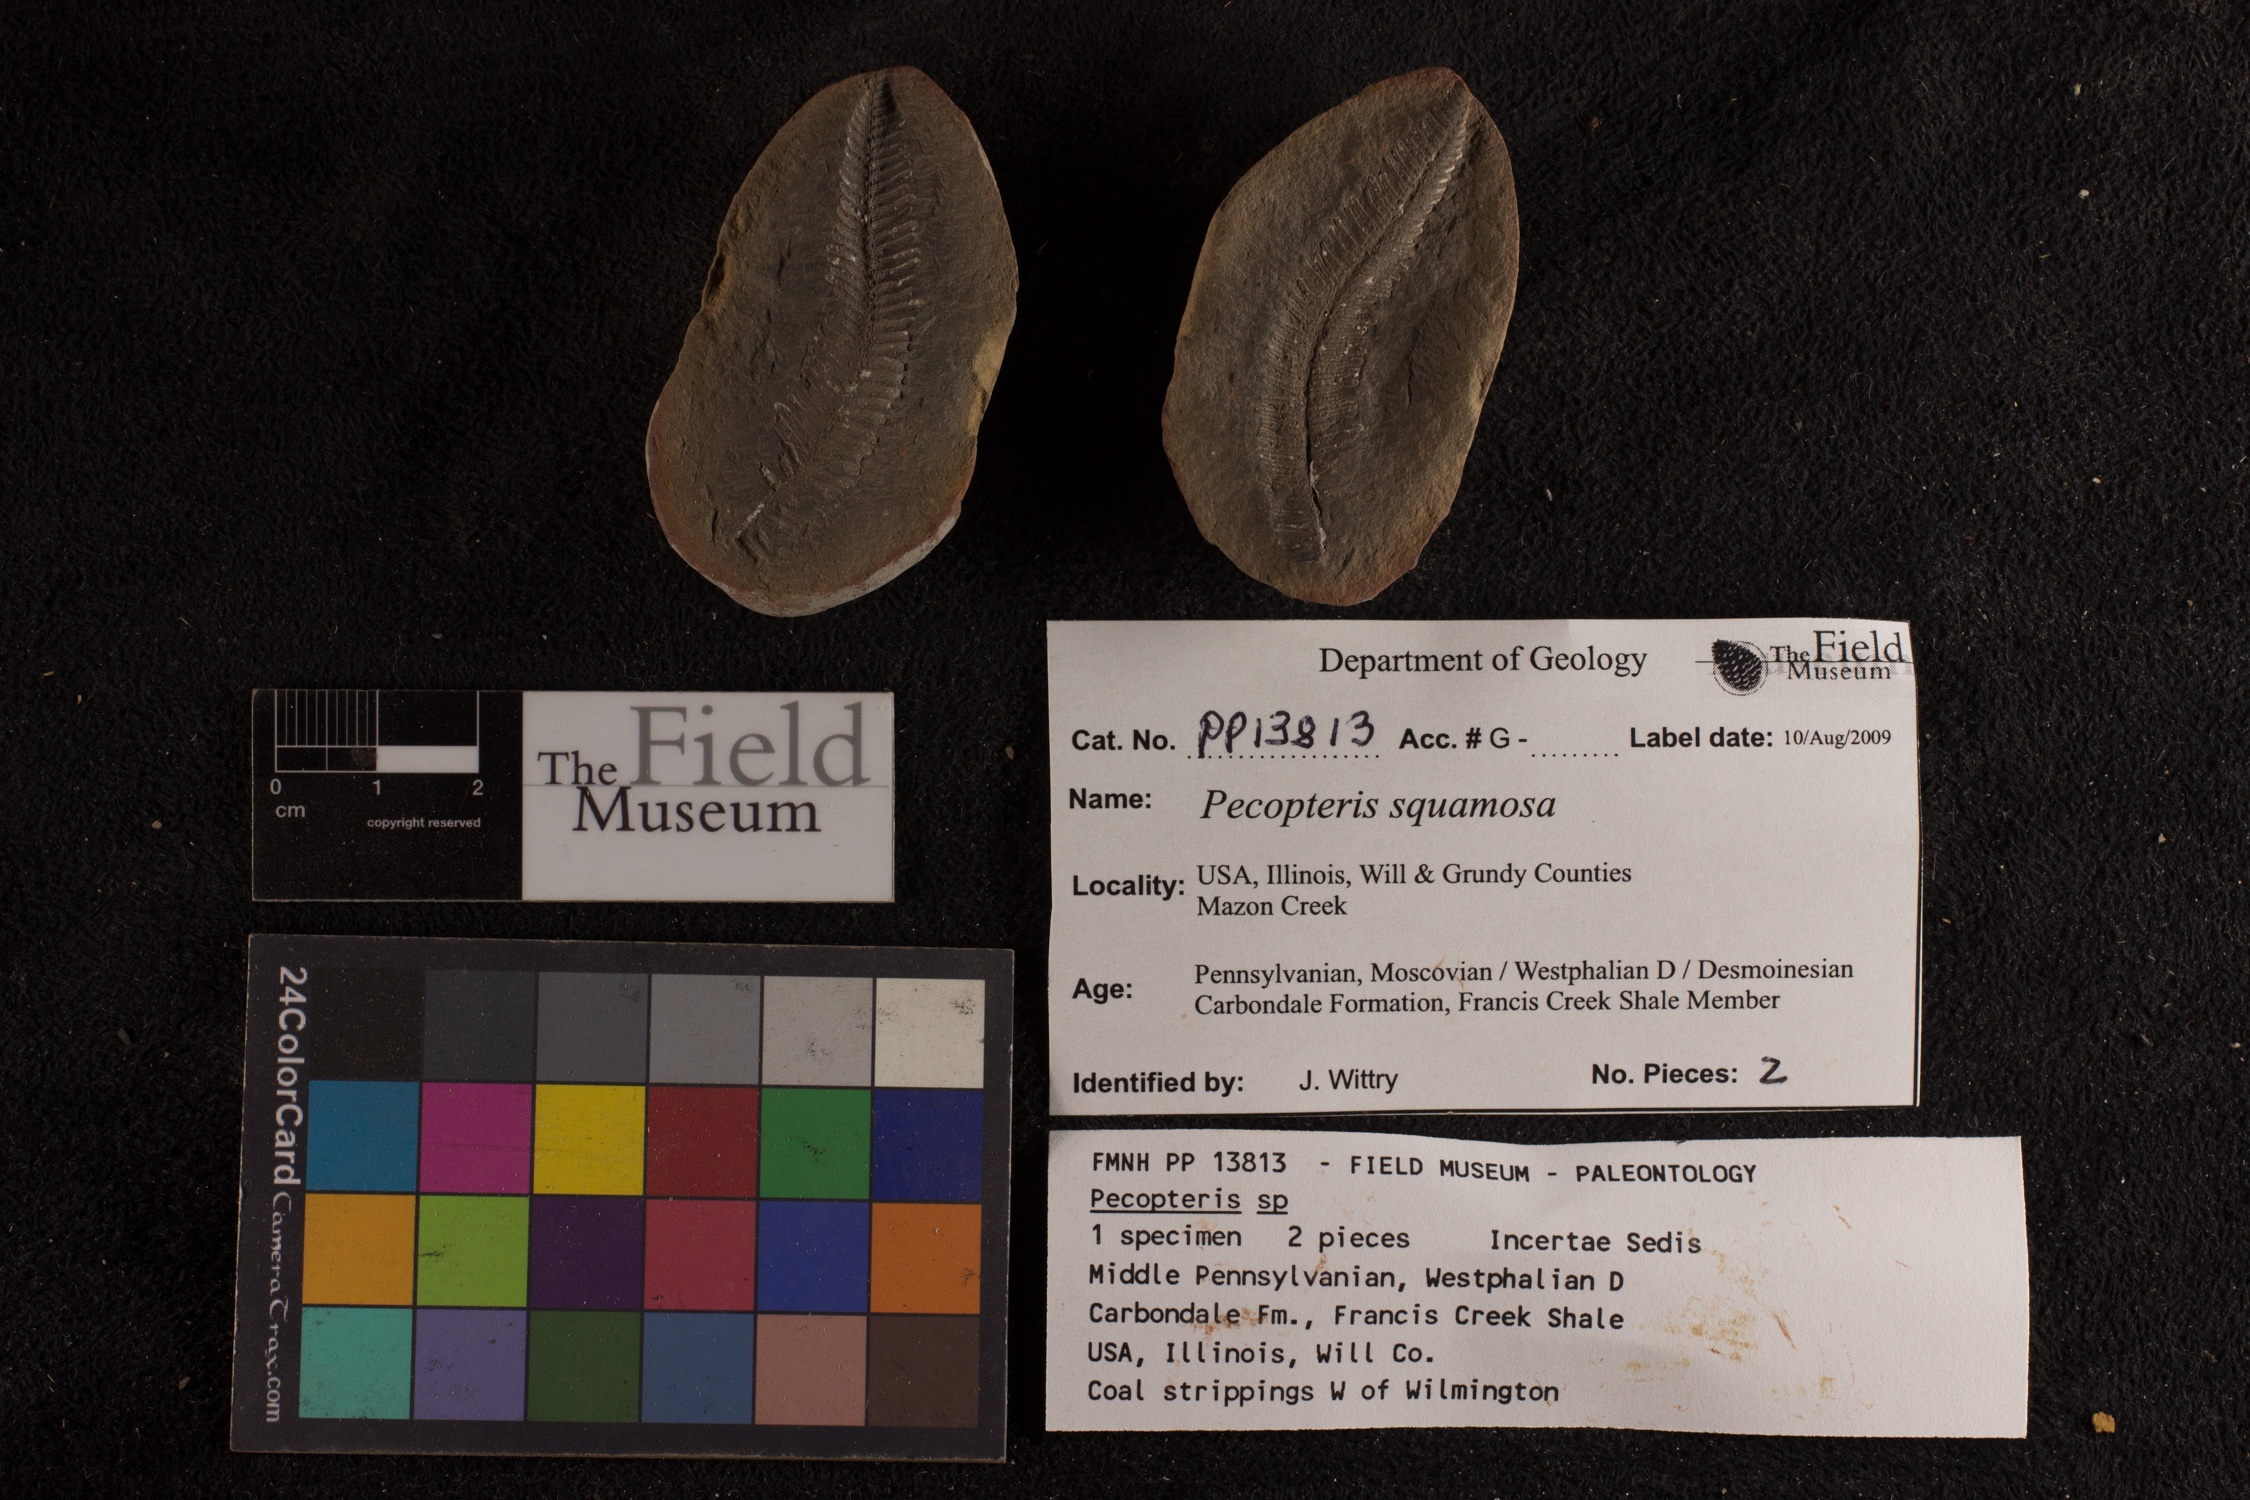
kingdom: Plantae
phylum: Tracheophyta
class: Polypodiopsida
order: Marattiales
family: Asterothecaceae
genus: Pecopteris
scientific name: Pecopteris
